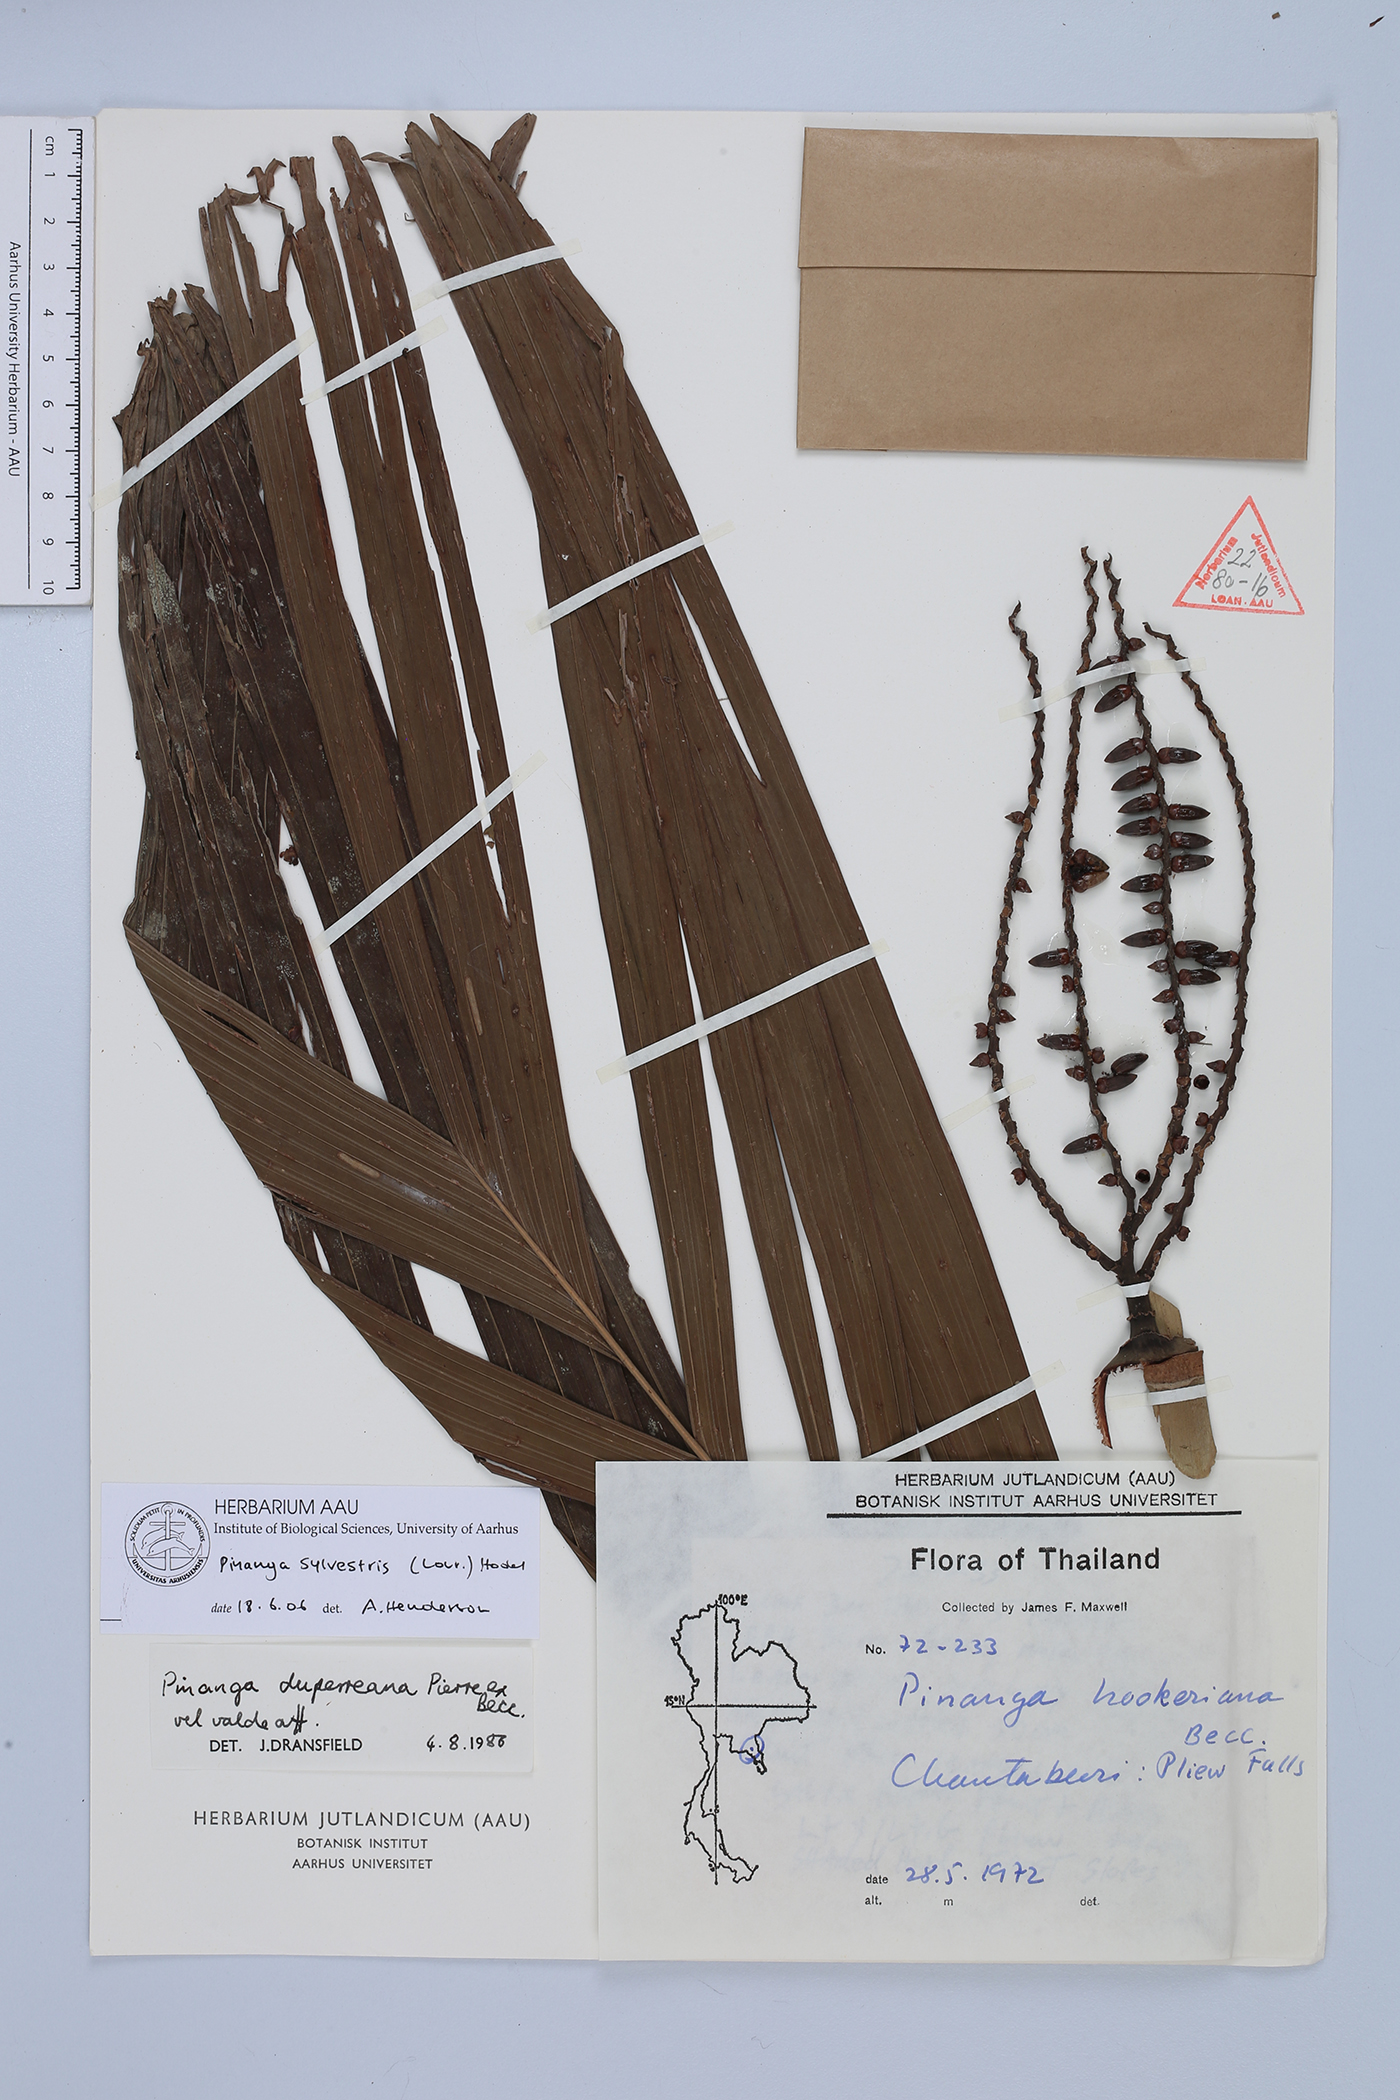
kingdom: Plantae
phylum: Tracheophyta
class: Liliopsida
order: Arecales
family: Arecaceae
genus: Pinanga
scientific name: Pinanga sylvestris
